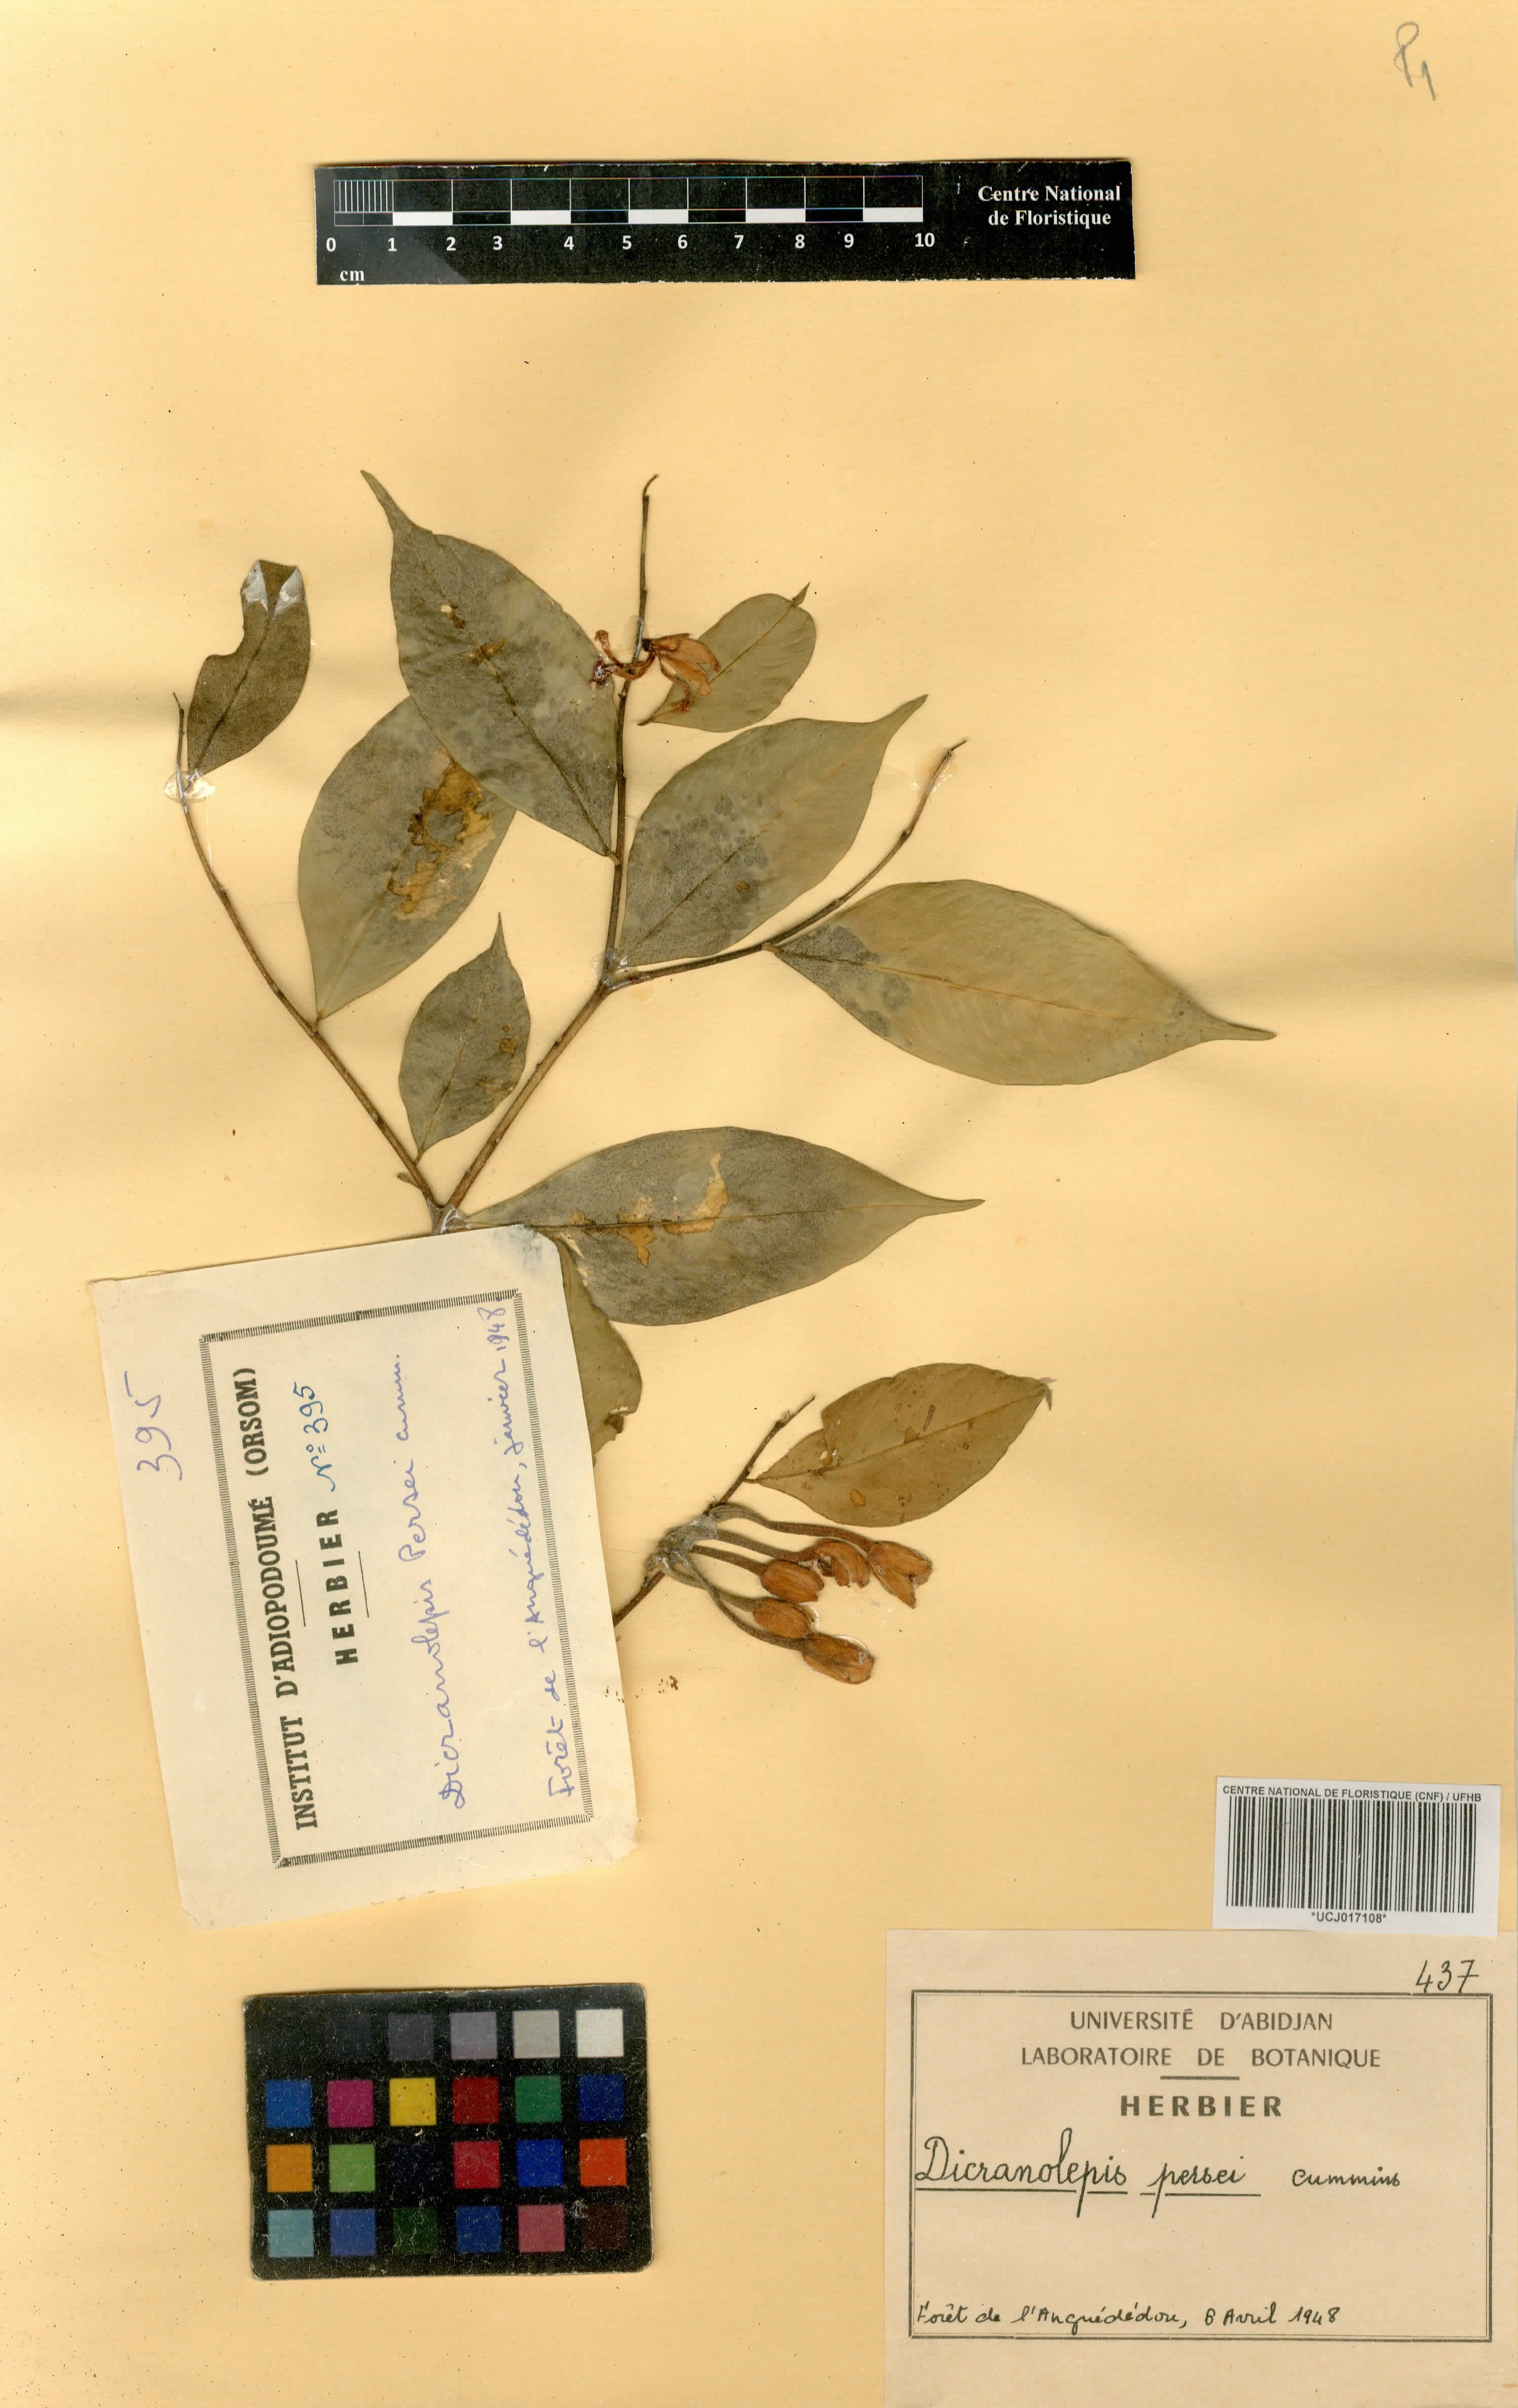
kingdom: Plantae
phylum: Tracheophyta
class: Magnoliopsida
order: Malvales
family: Thymelaeaceae
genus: Dicranolepis
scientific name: Dicranolepis persei
